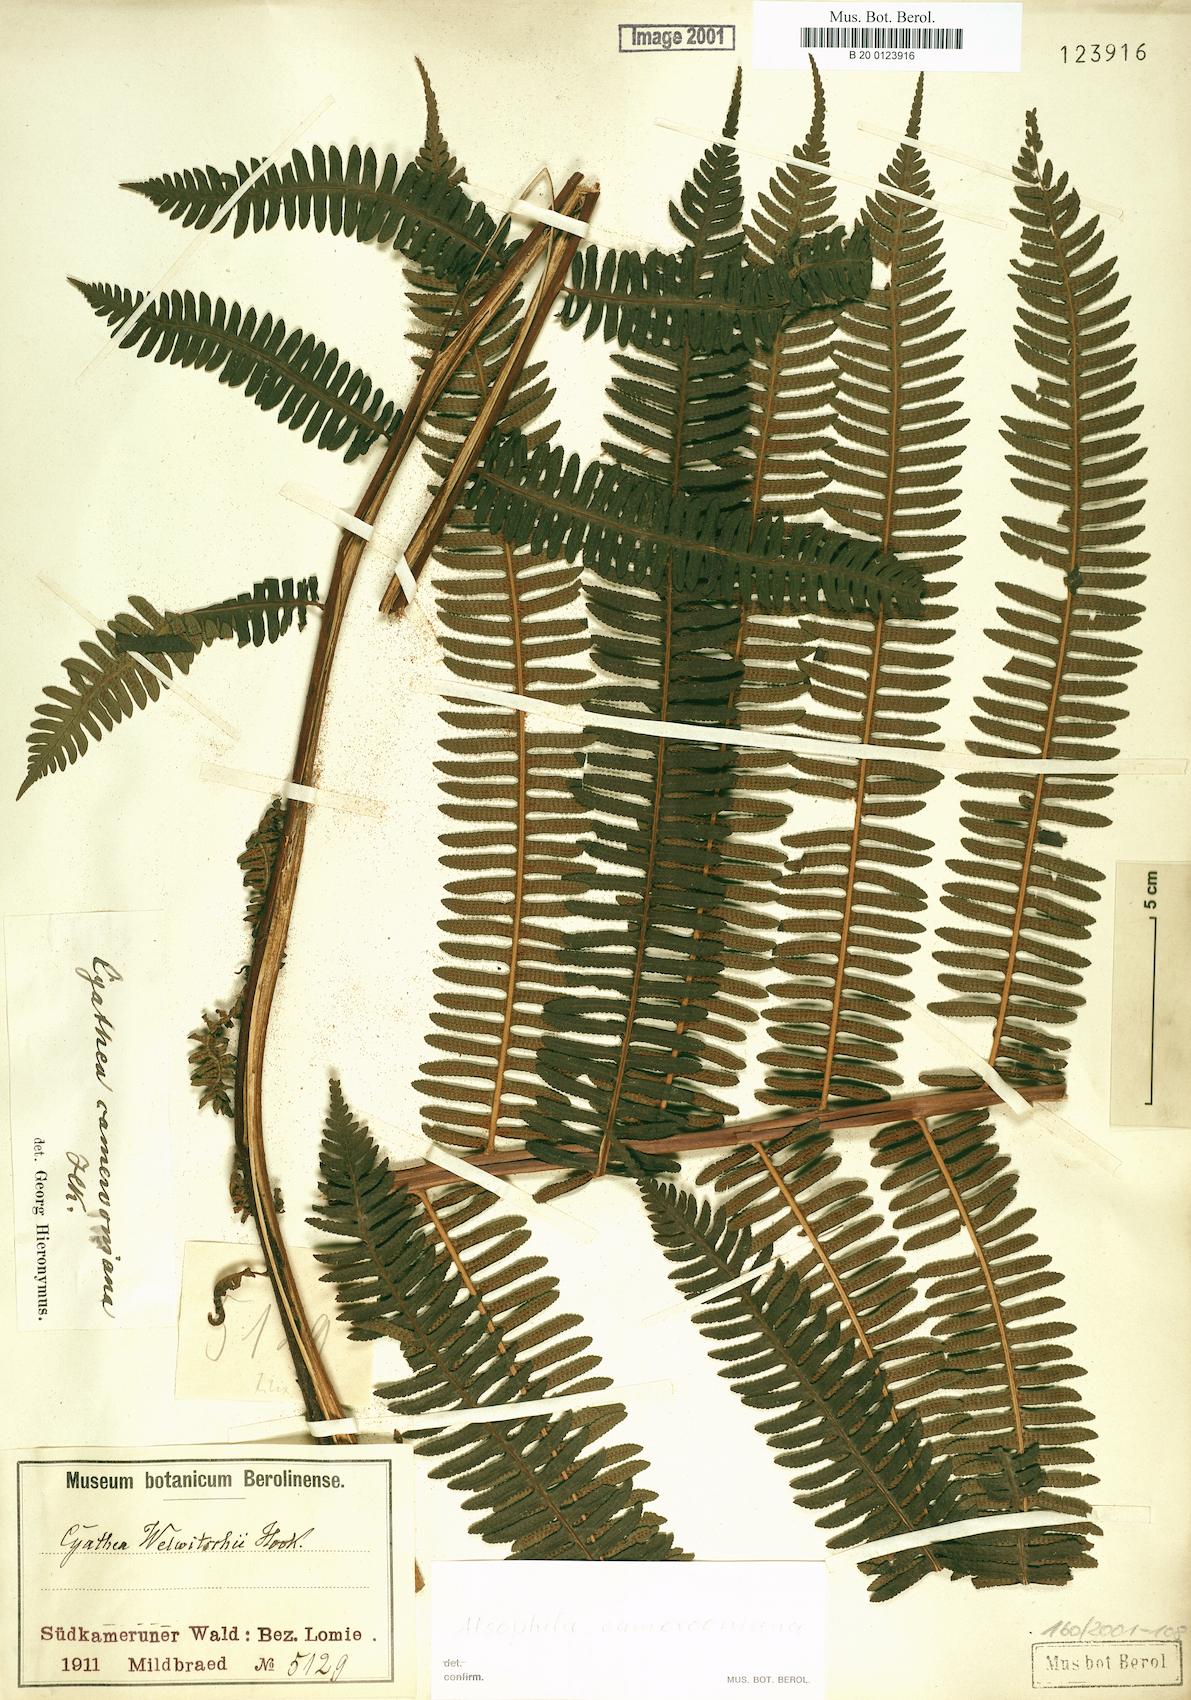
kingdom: Plantae
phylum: Tracheophyta
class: Polypodiopsida
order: Cyatheales
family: Cyatheaceae
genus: Alsophila
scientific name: Alsophila camerooniana
